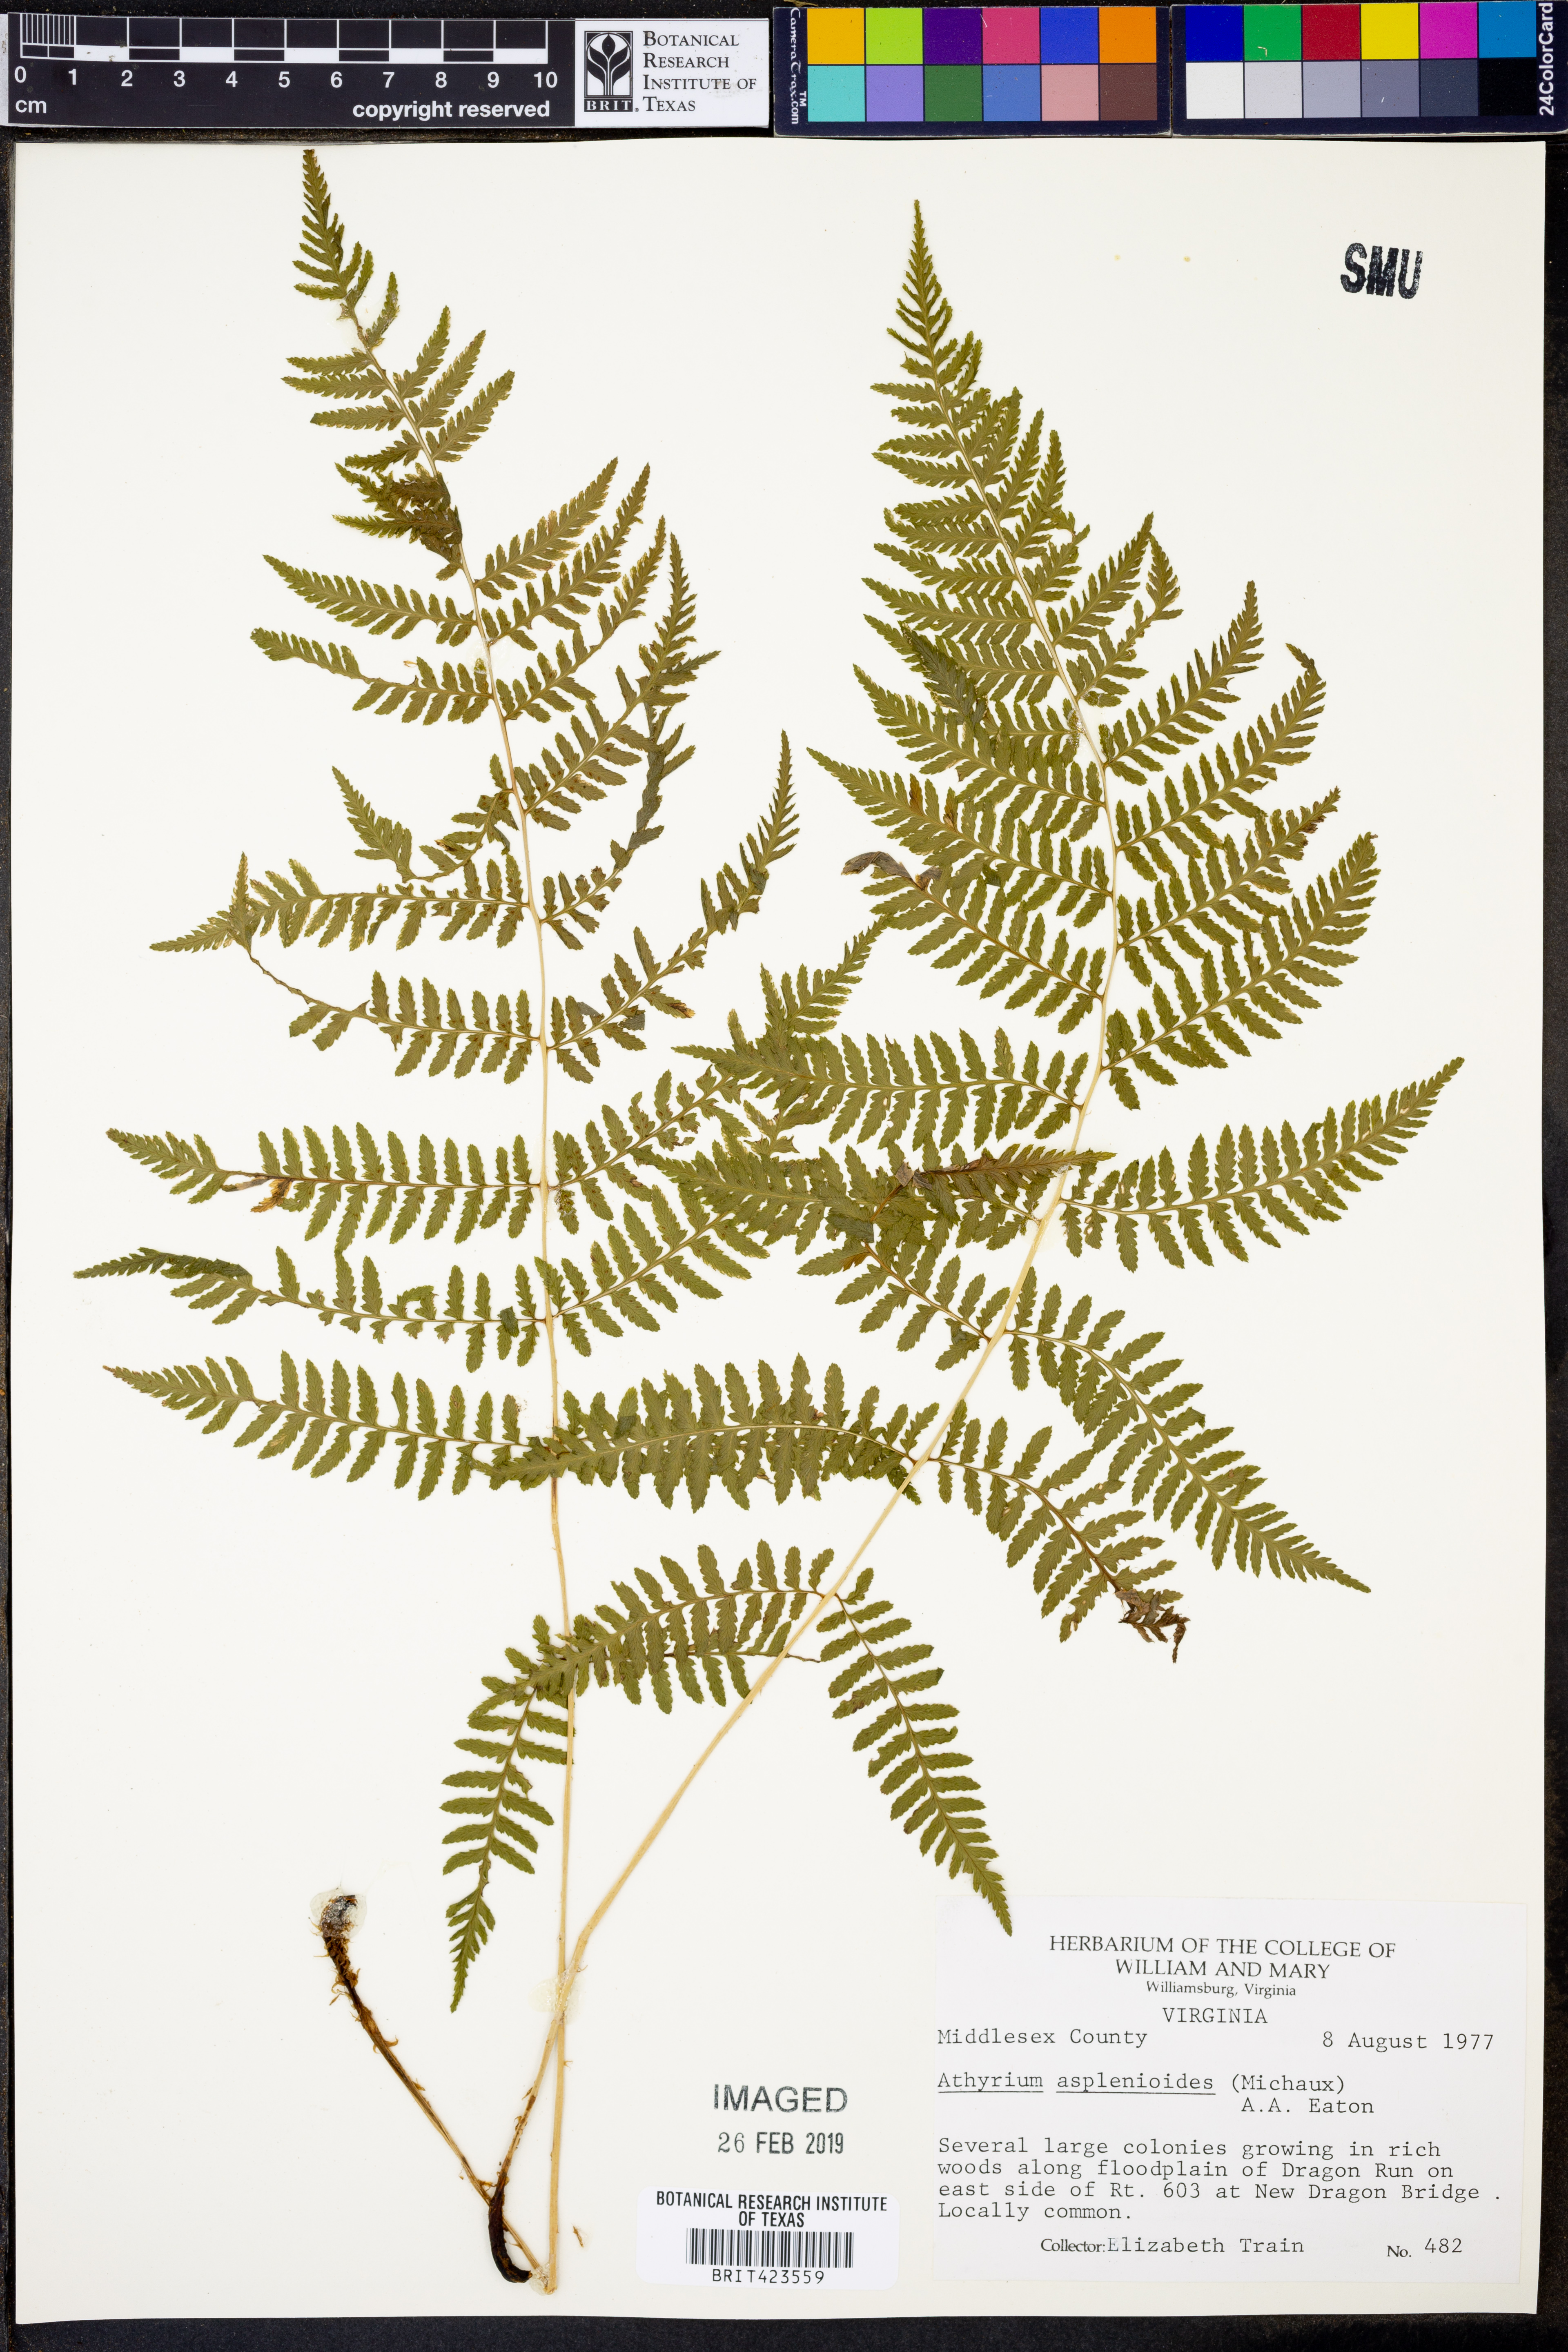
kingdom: Plantae
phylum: Tracheophyta
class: Polypodiopsida
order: Polypodiales
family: Athyriaceae
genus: Athyrium
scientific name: Athyrium asplenioides
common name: Southern lady fern
